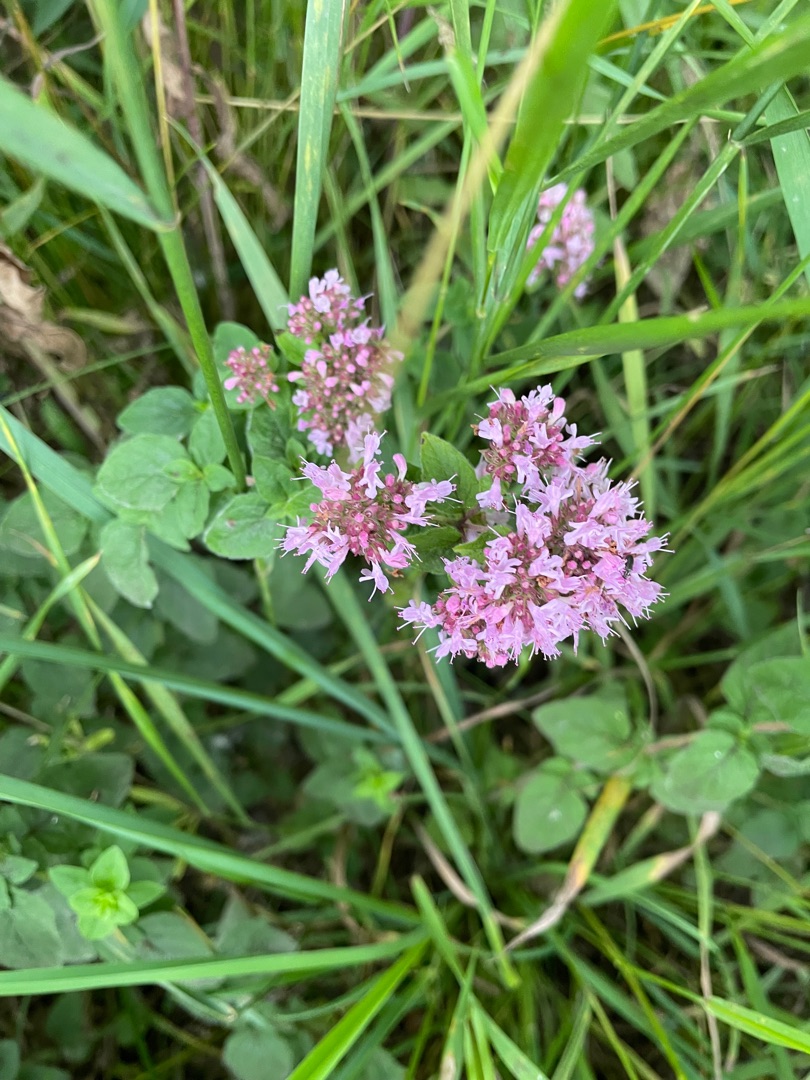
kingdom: Plantae
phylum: Tracheophyta
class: Magnoliopsida
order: Lamiales
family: Lamiaceae
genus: Origanum
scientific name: Origanum vulgare
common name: Merian
